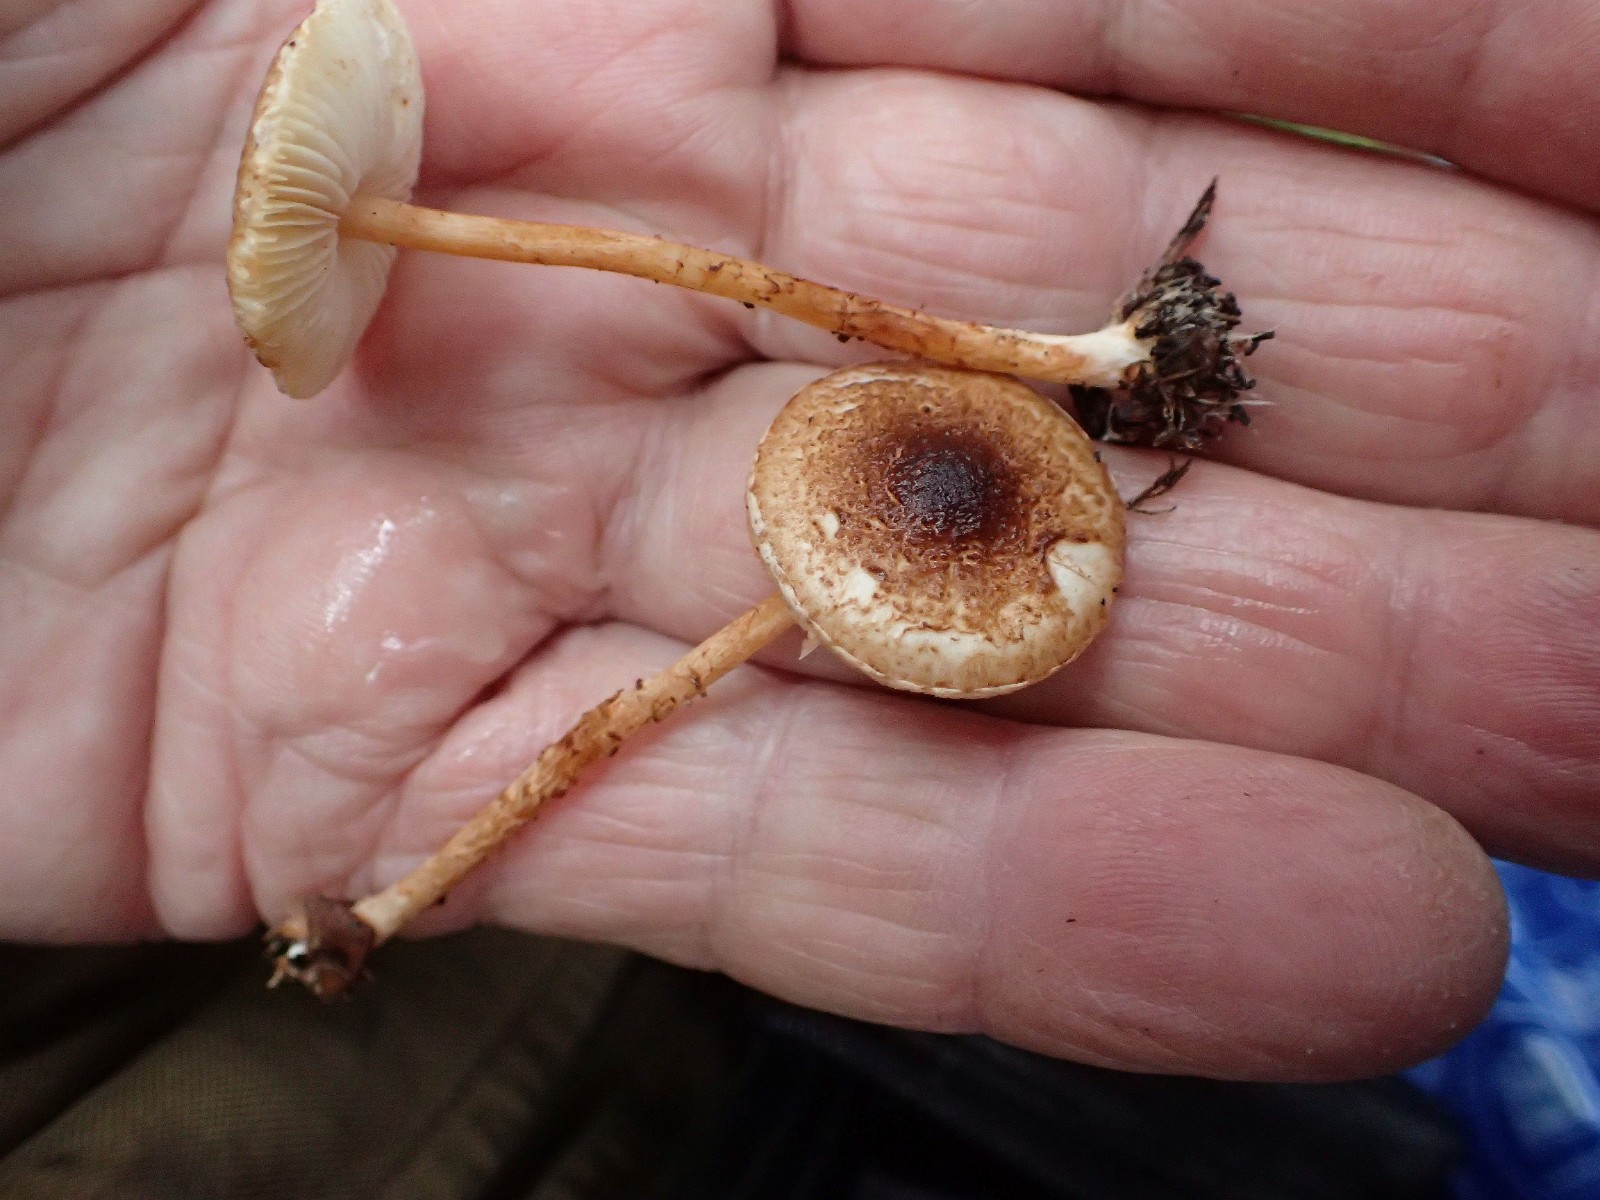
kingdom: Fungi
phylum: Basidiomycota
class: Agaricomycetes
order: Agaricales
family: Agaricaceae
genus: Lepiota
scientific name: Lepiota castanea
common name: kastaniebrun parasolhat
